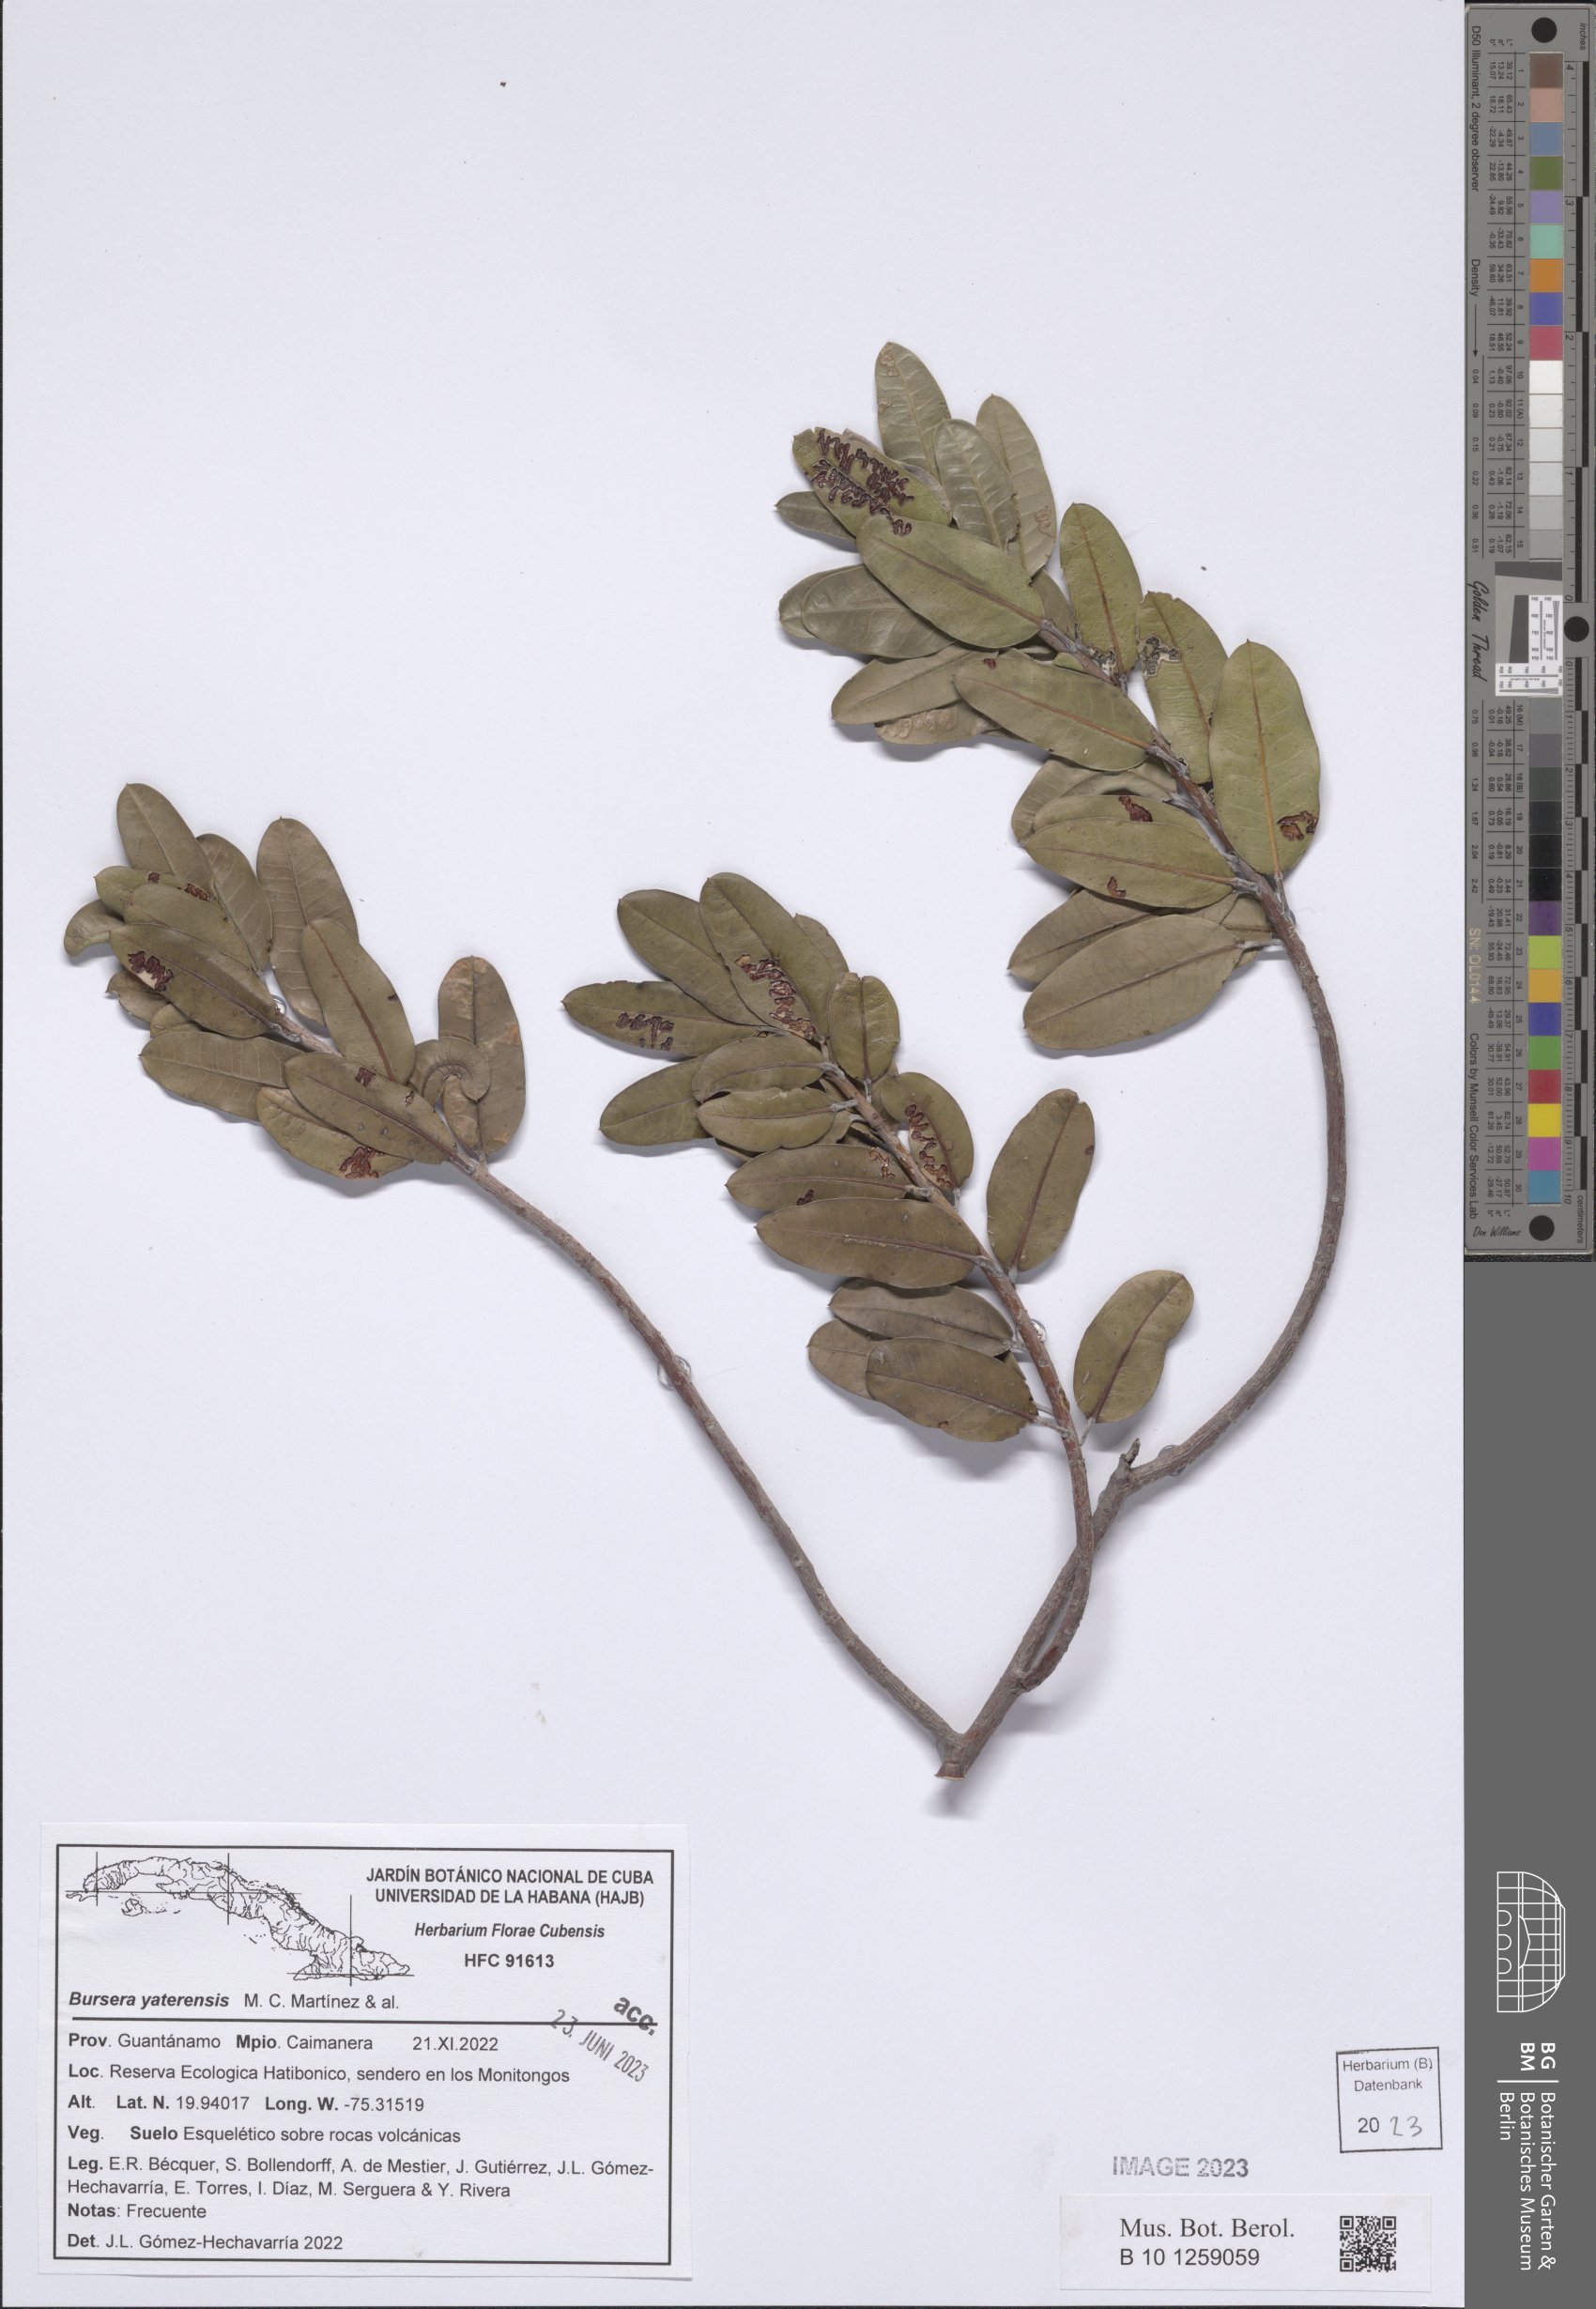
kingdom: Plantae
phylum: Tracheophyta
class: Magnoliopsida
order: Sapindales
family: Burseraceae
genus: Bursera
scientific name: Bursera yaterensis
